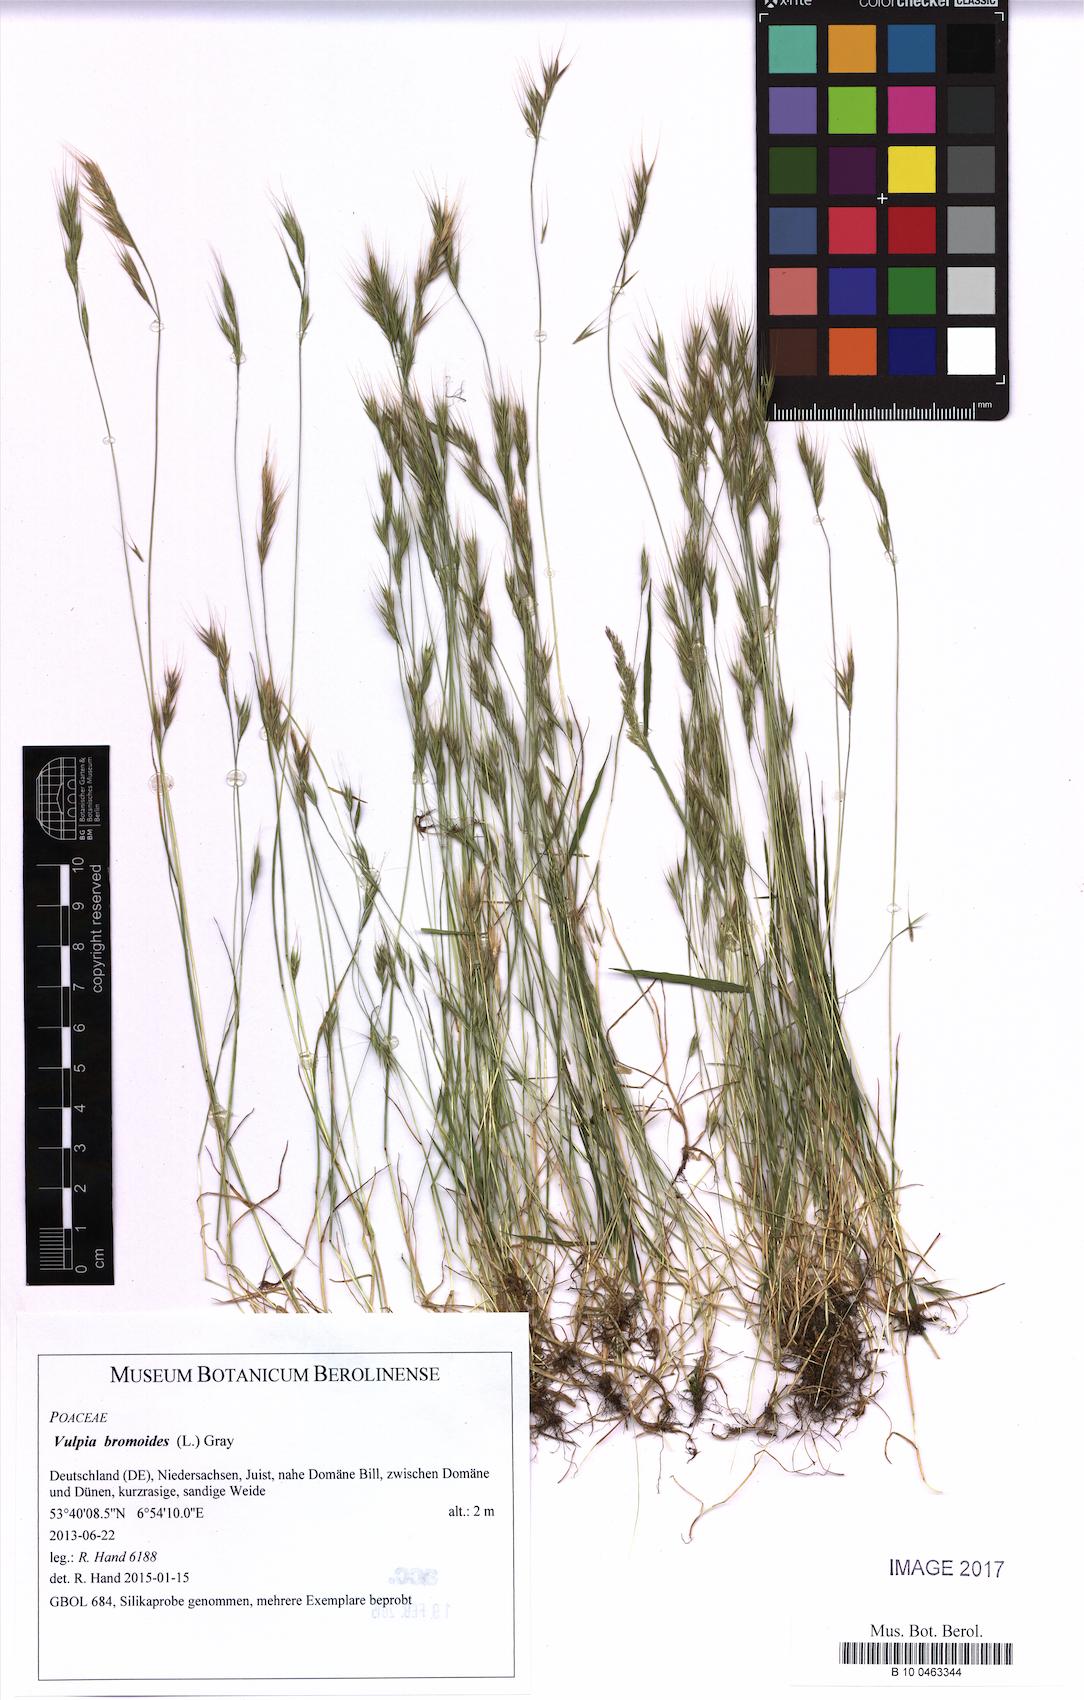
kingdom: Plantae
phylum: Tracheophyta
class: Liliopsida
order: Poales
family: Poaceae
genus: Festuca
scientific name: Festuca bromoides
